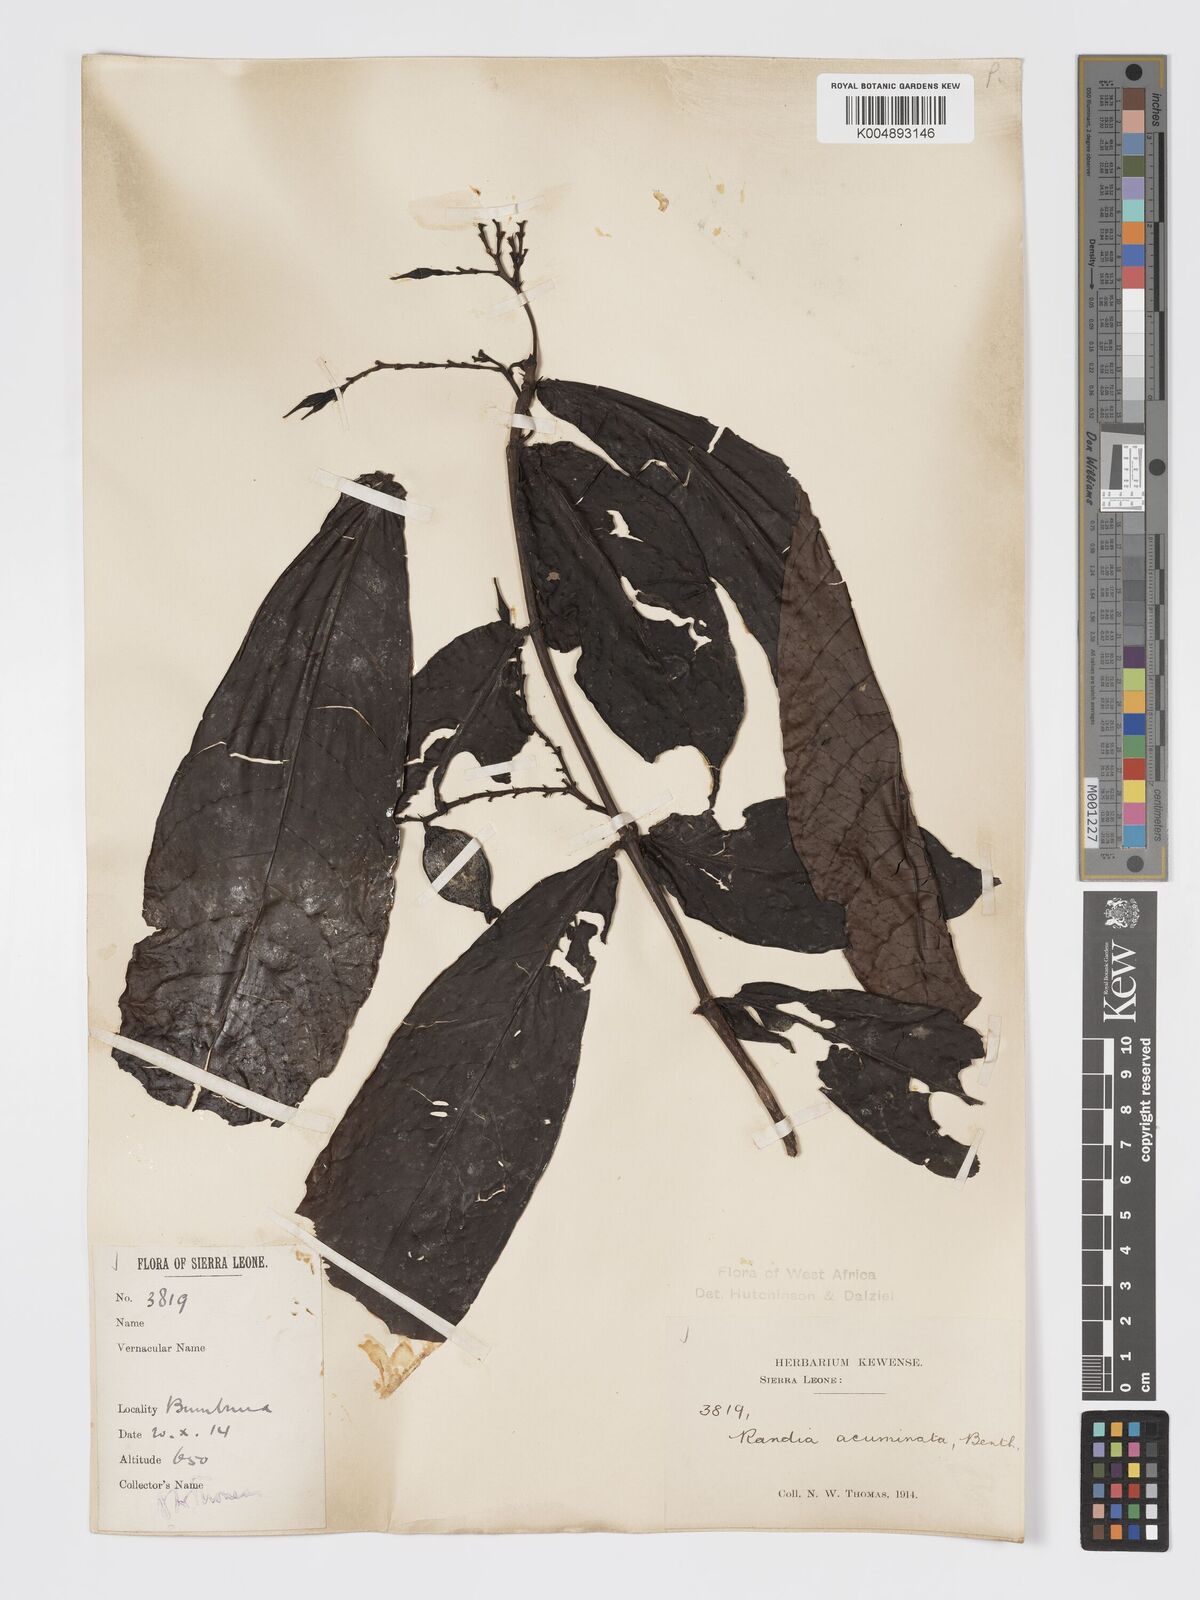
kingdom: Plantae
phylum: Tracheophyta
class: Magnoliopsida
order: Gentianales
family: Rubiaceae
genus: Massularia
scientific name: Massularia acuminata
